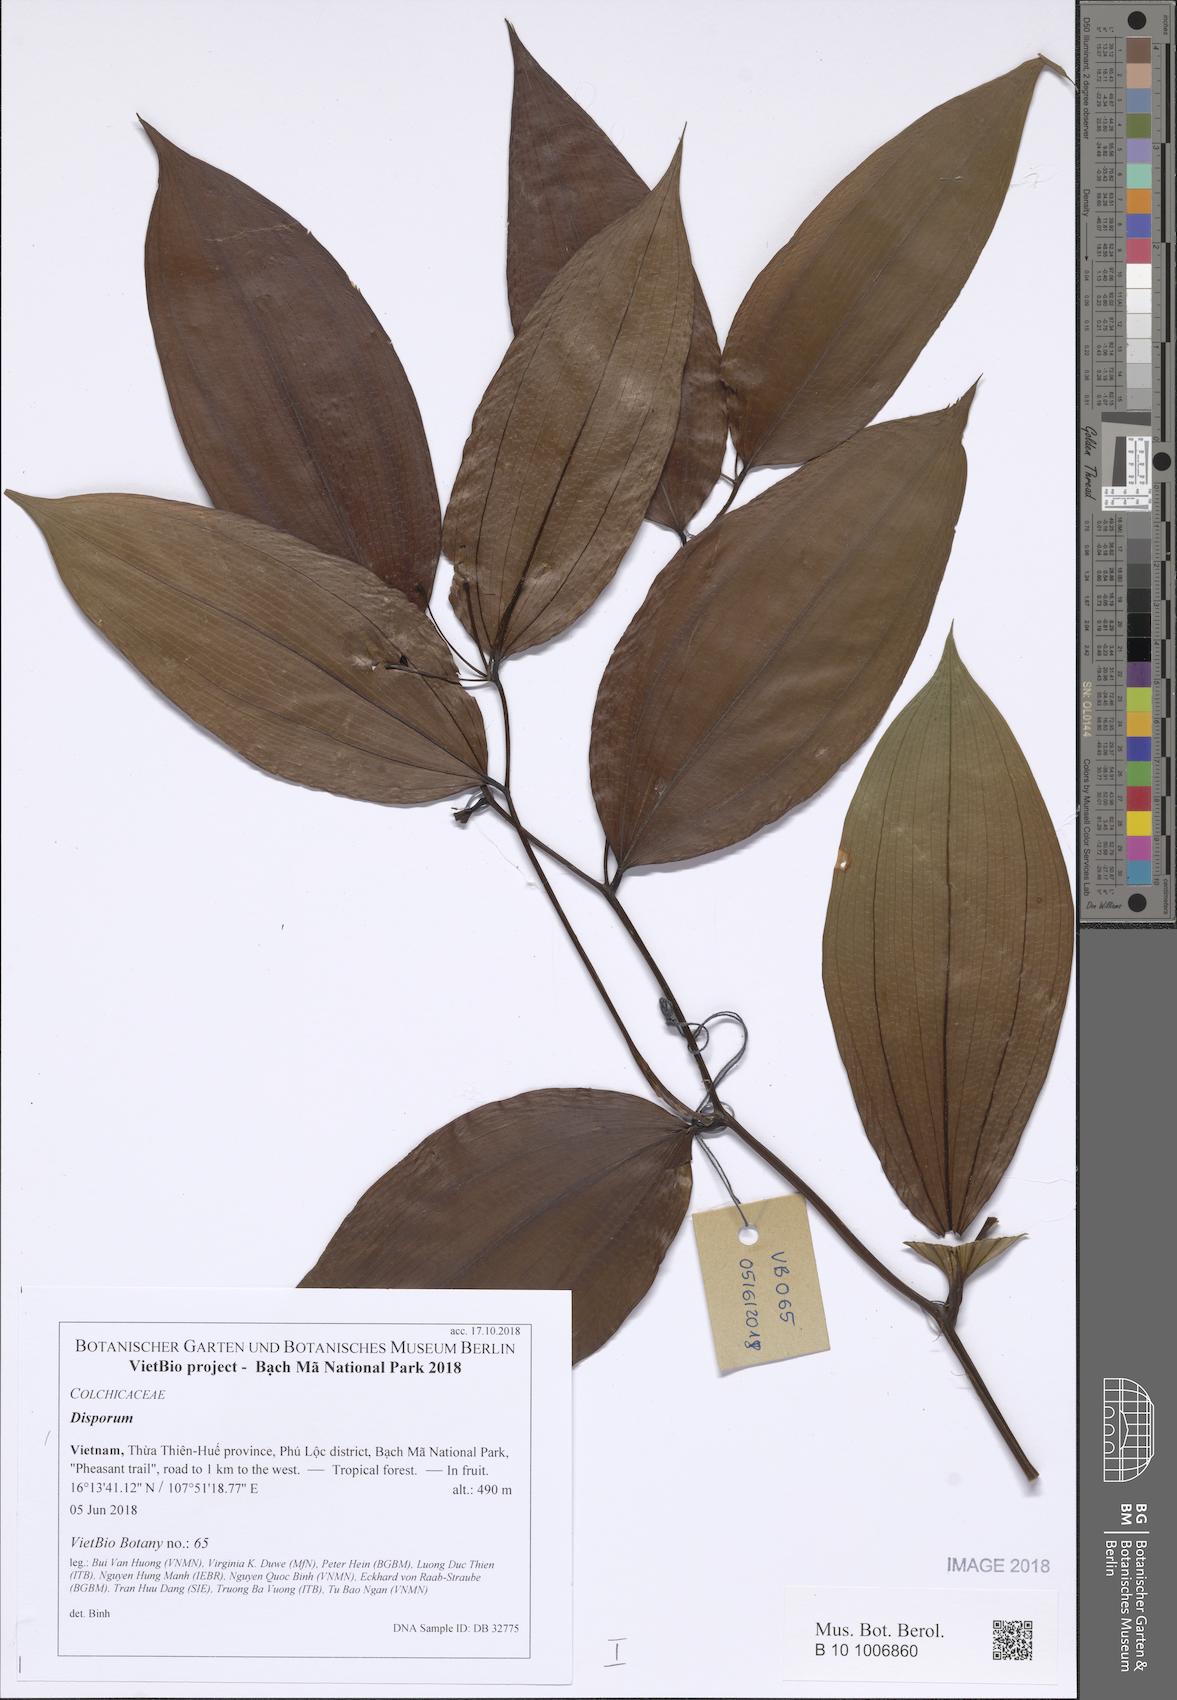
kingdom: Plantae
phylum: Tracheophyta
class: Liliopsida
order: Asparagales
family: Asparagaceae
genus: Disporum
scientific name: Disporum
